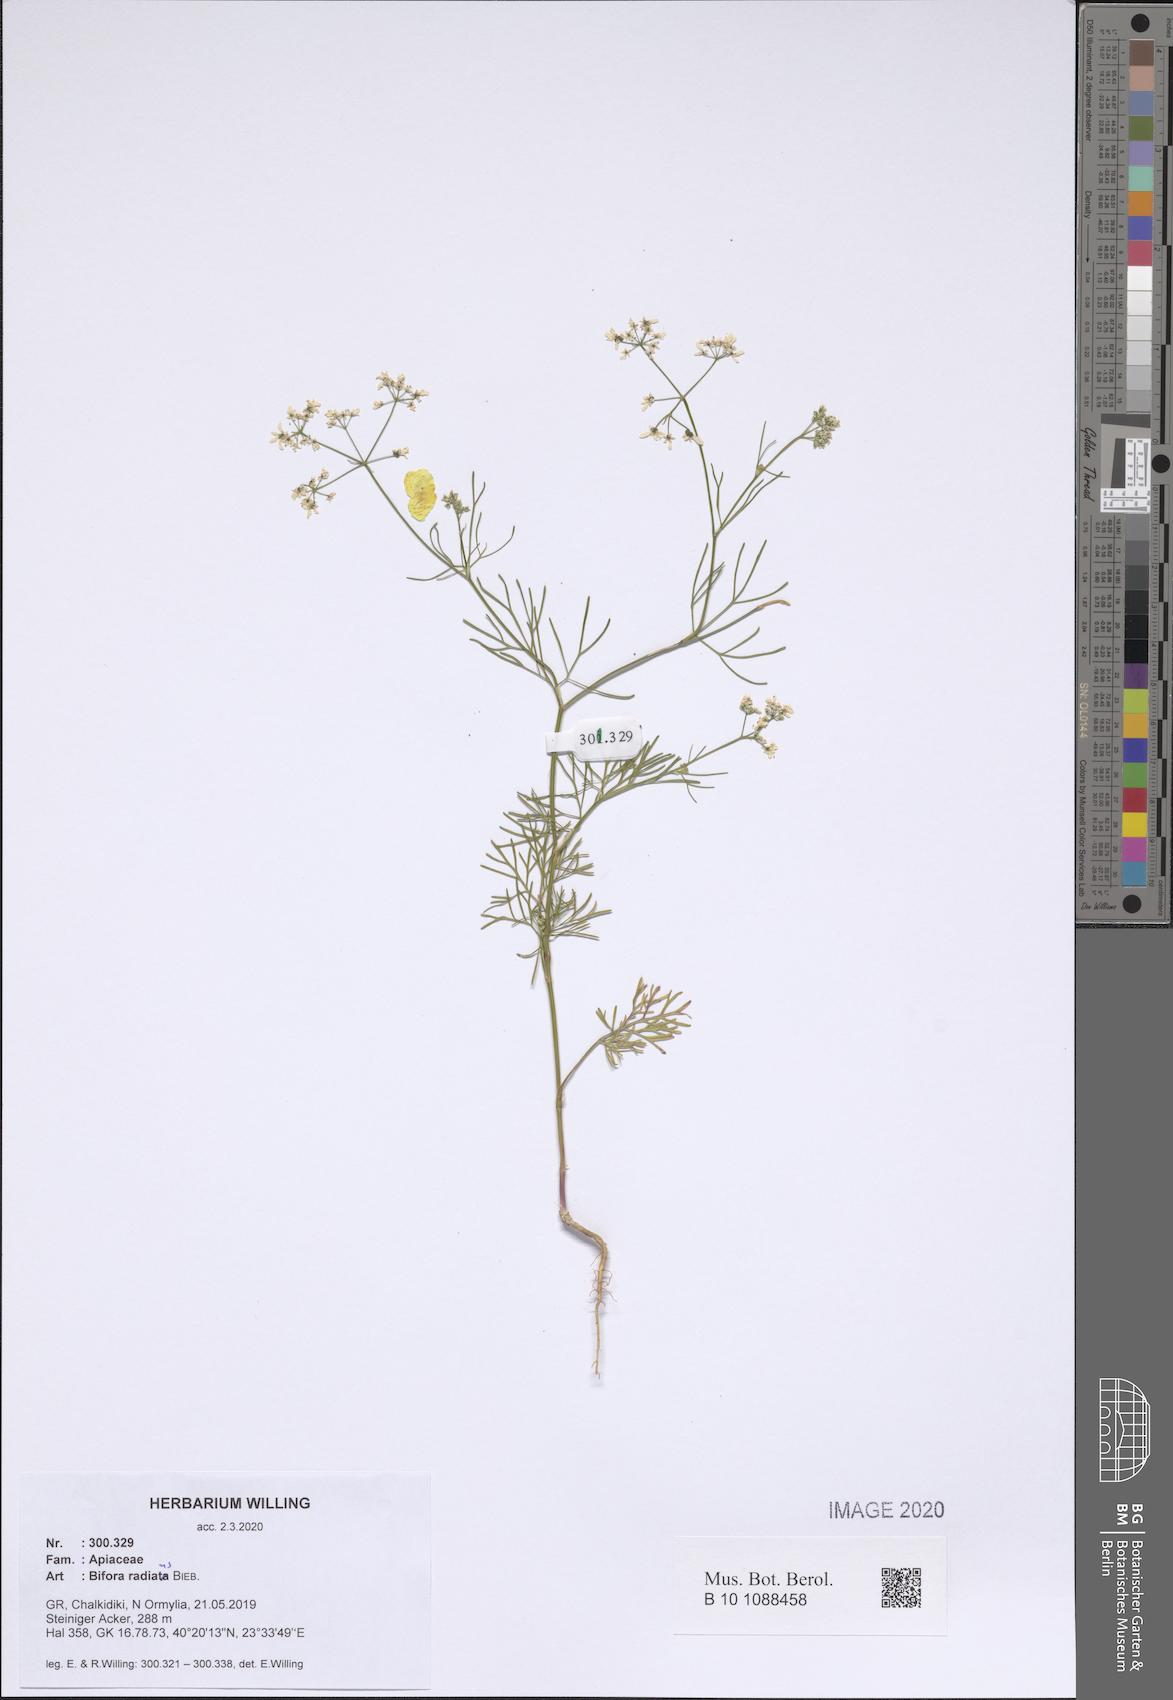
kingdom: Plantae
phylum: Tracheophyta
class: Magnoliopsida
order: Apiales
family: Apiaceae
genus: Bifora
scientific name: Bifora radians
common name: Wild bishop
